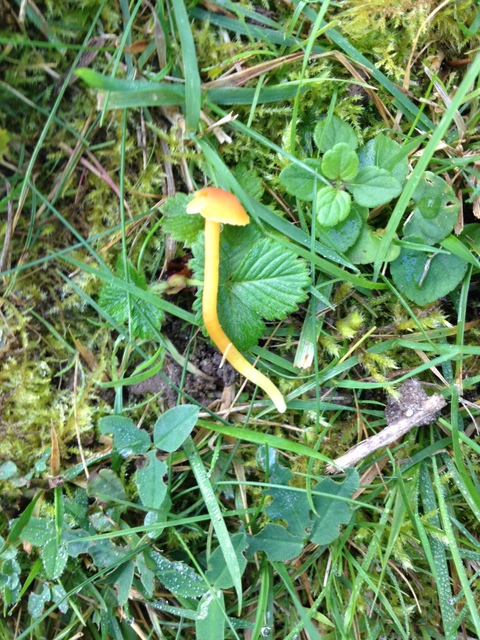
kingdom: Fungi
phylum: Basidiomycota
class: Agaricomycetes
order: Agaricales
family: Hygrophoraceae
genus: Hygrocybe
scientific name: Hygrocybe mucronella
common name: bitter vokshat
